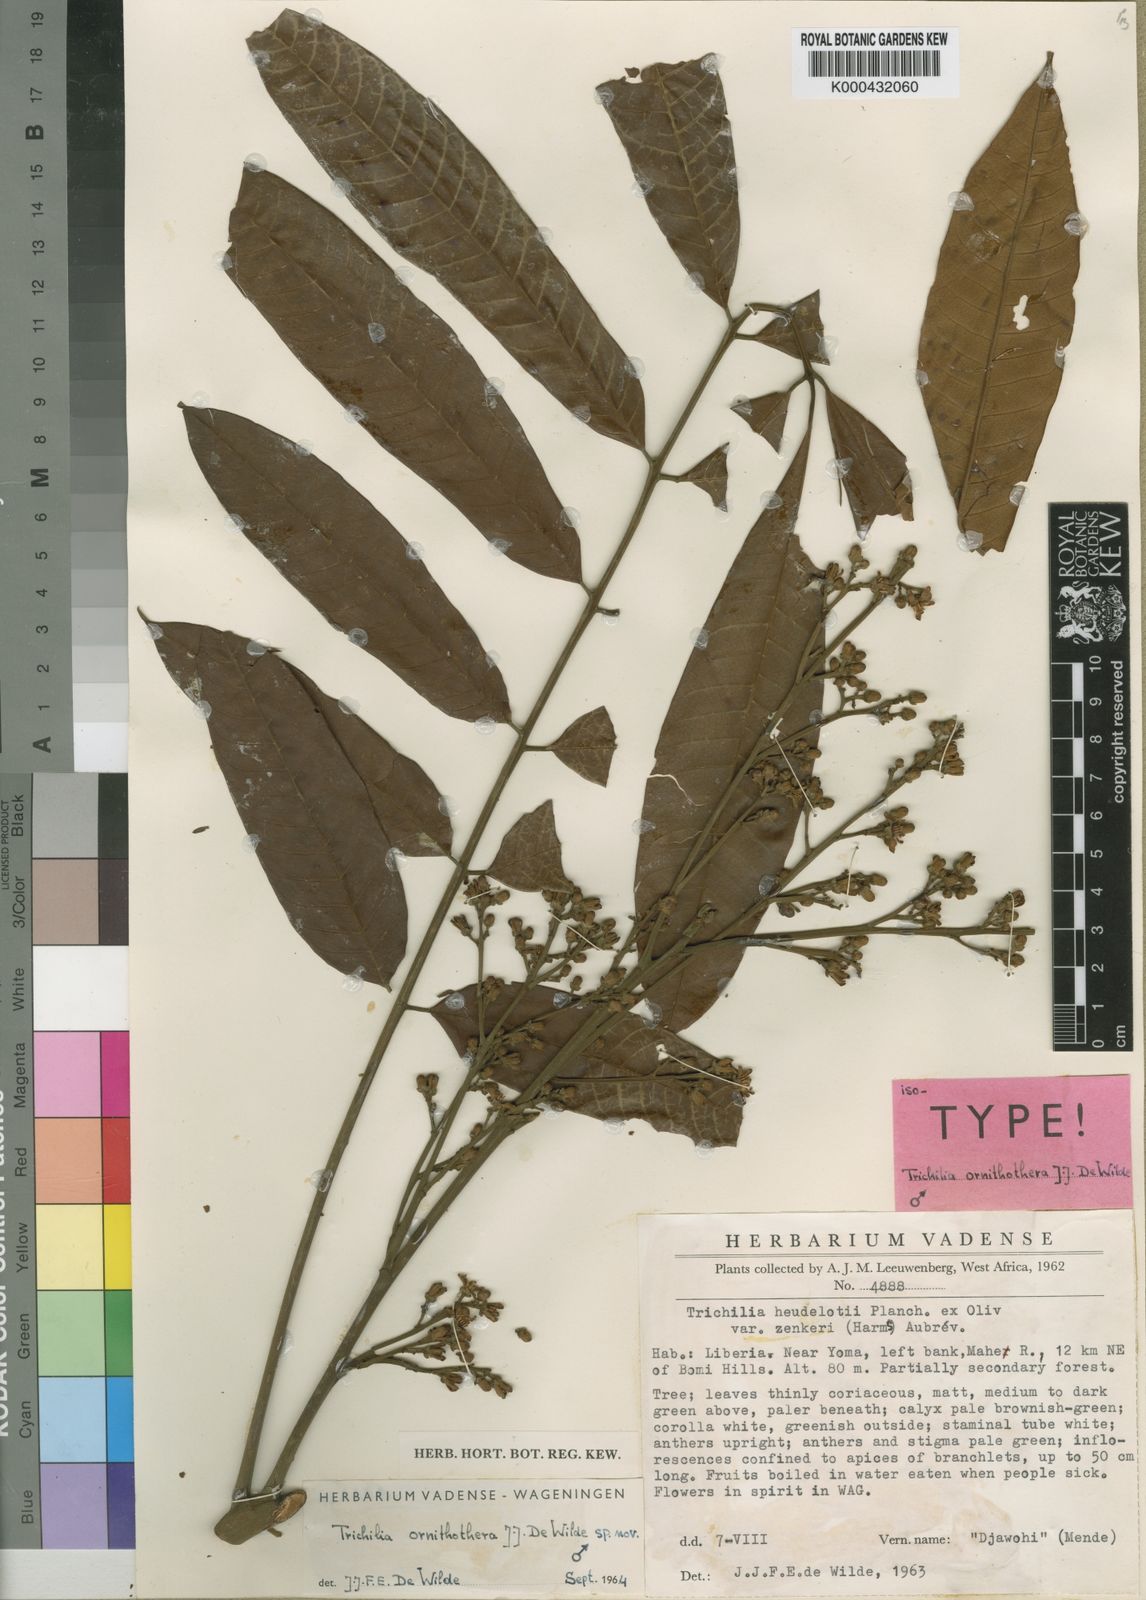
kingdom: Plantae
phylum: Tracheophyta
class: Magnoliopsida
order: Sapindales
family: Meliaceae
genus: Trichilia
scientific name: Trichilia ornithothera
